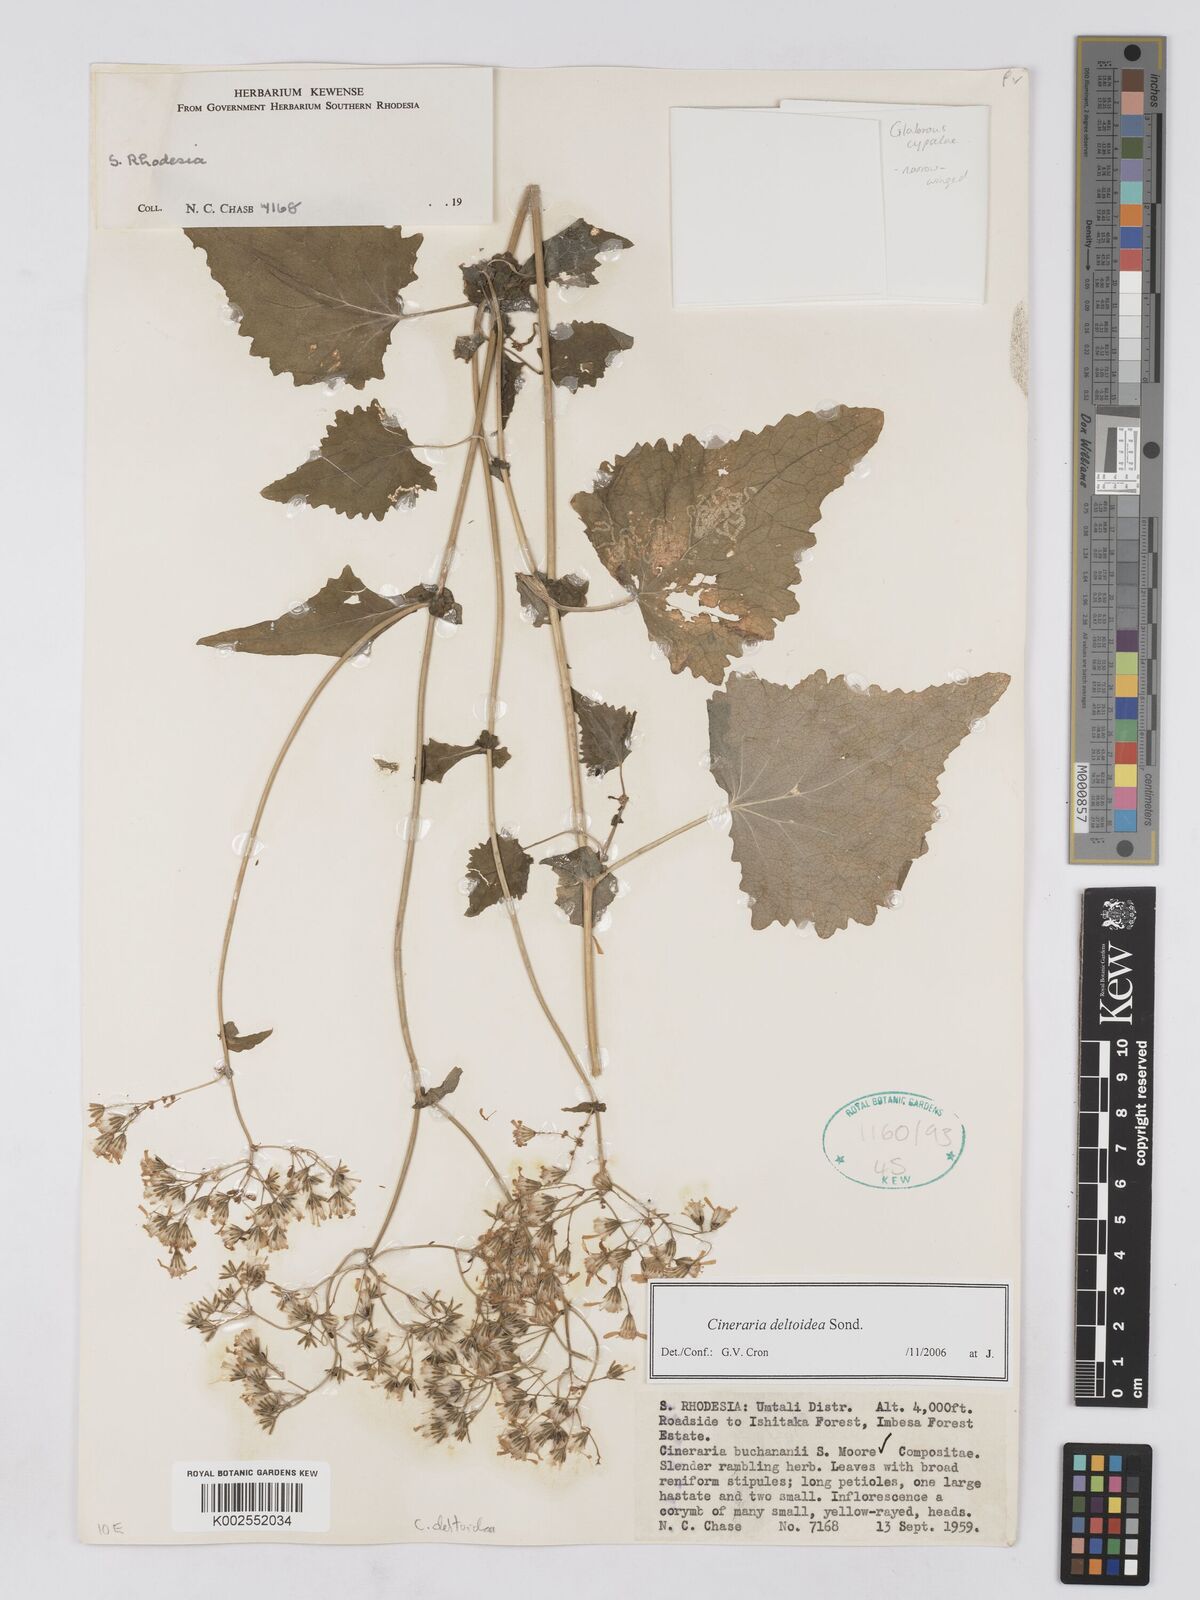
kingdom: Plantae
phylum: Tracheophyta
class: Magnoliopsida
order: Asterales
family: Asteraceae
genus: Cineraria
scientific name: Cineraria deltoidea
